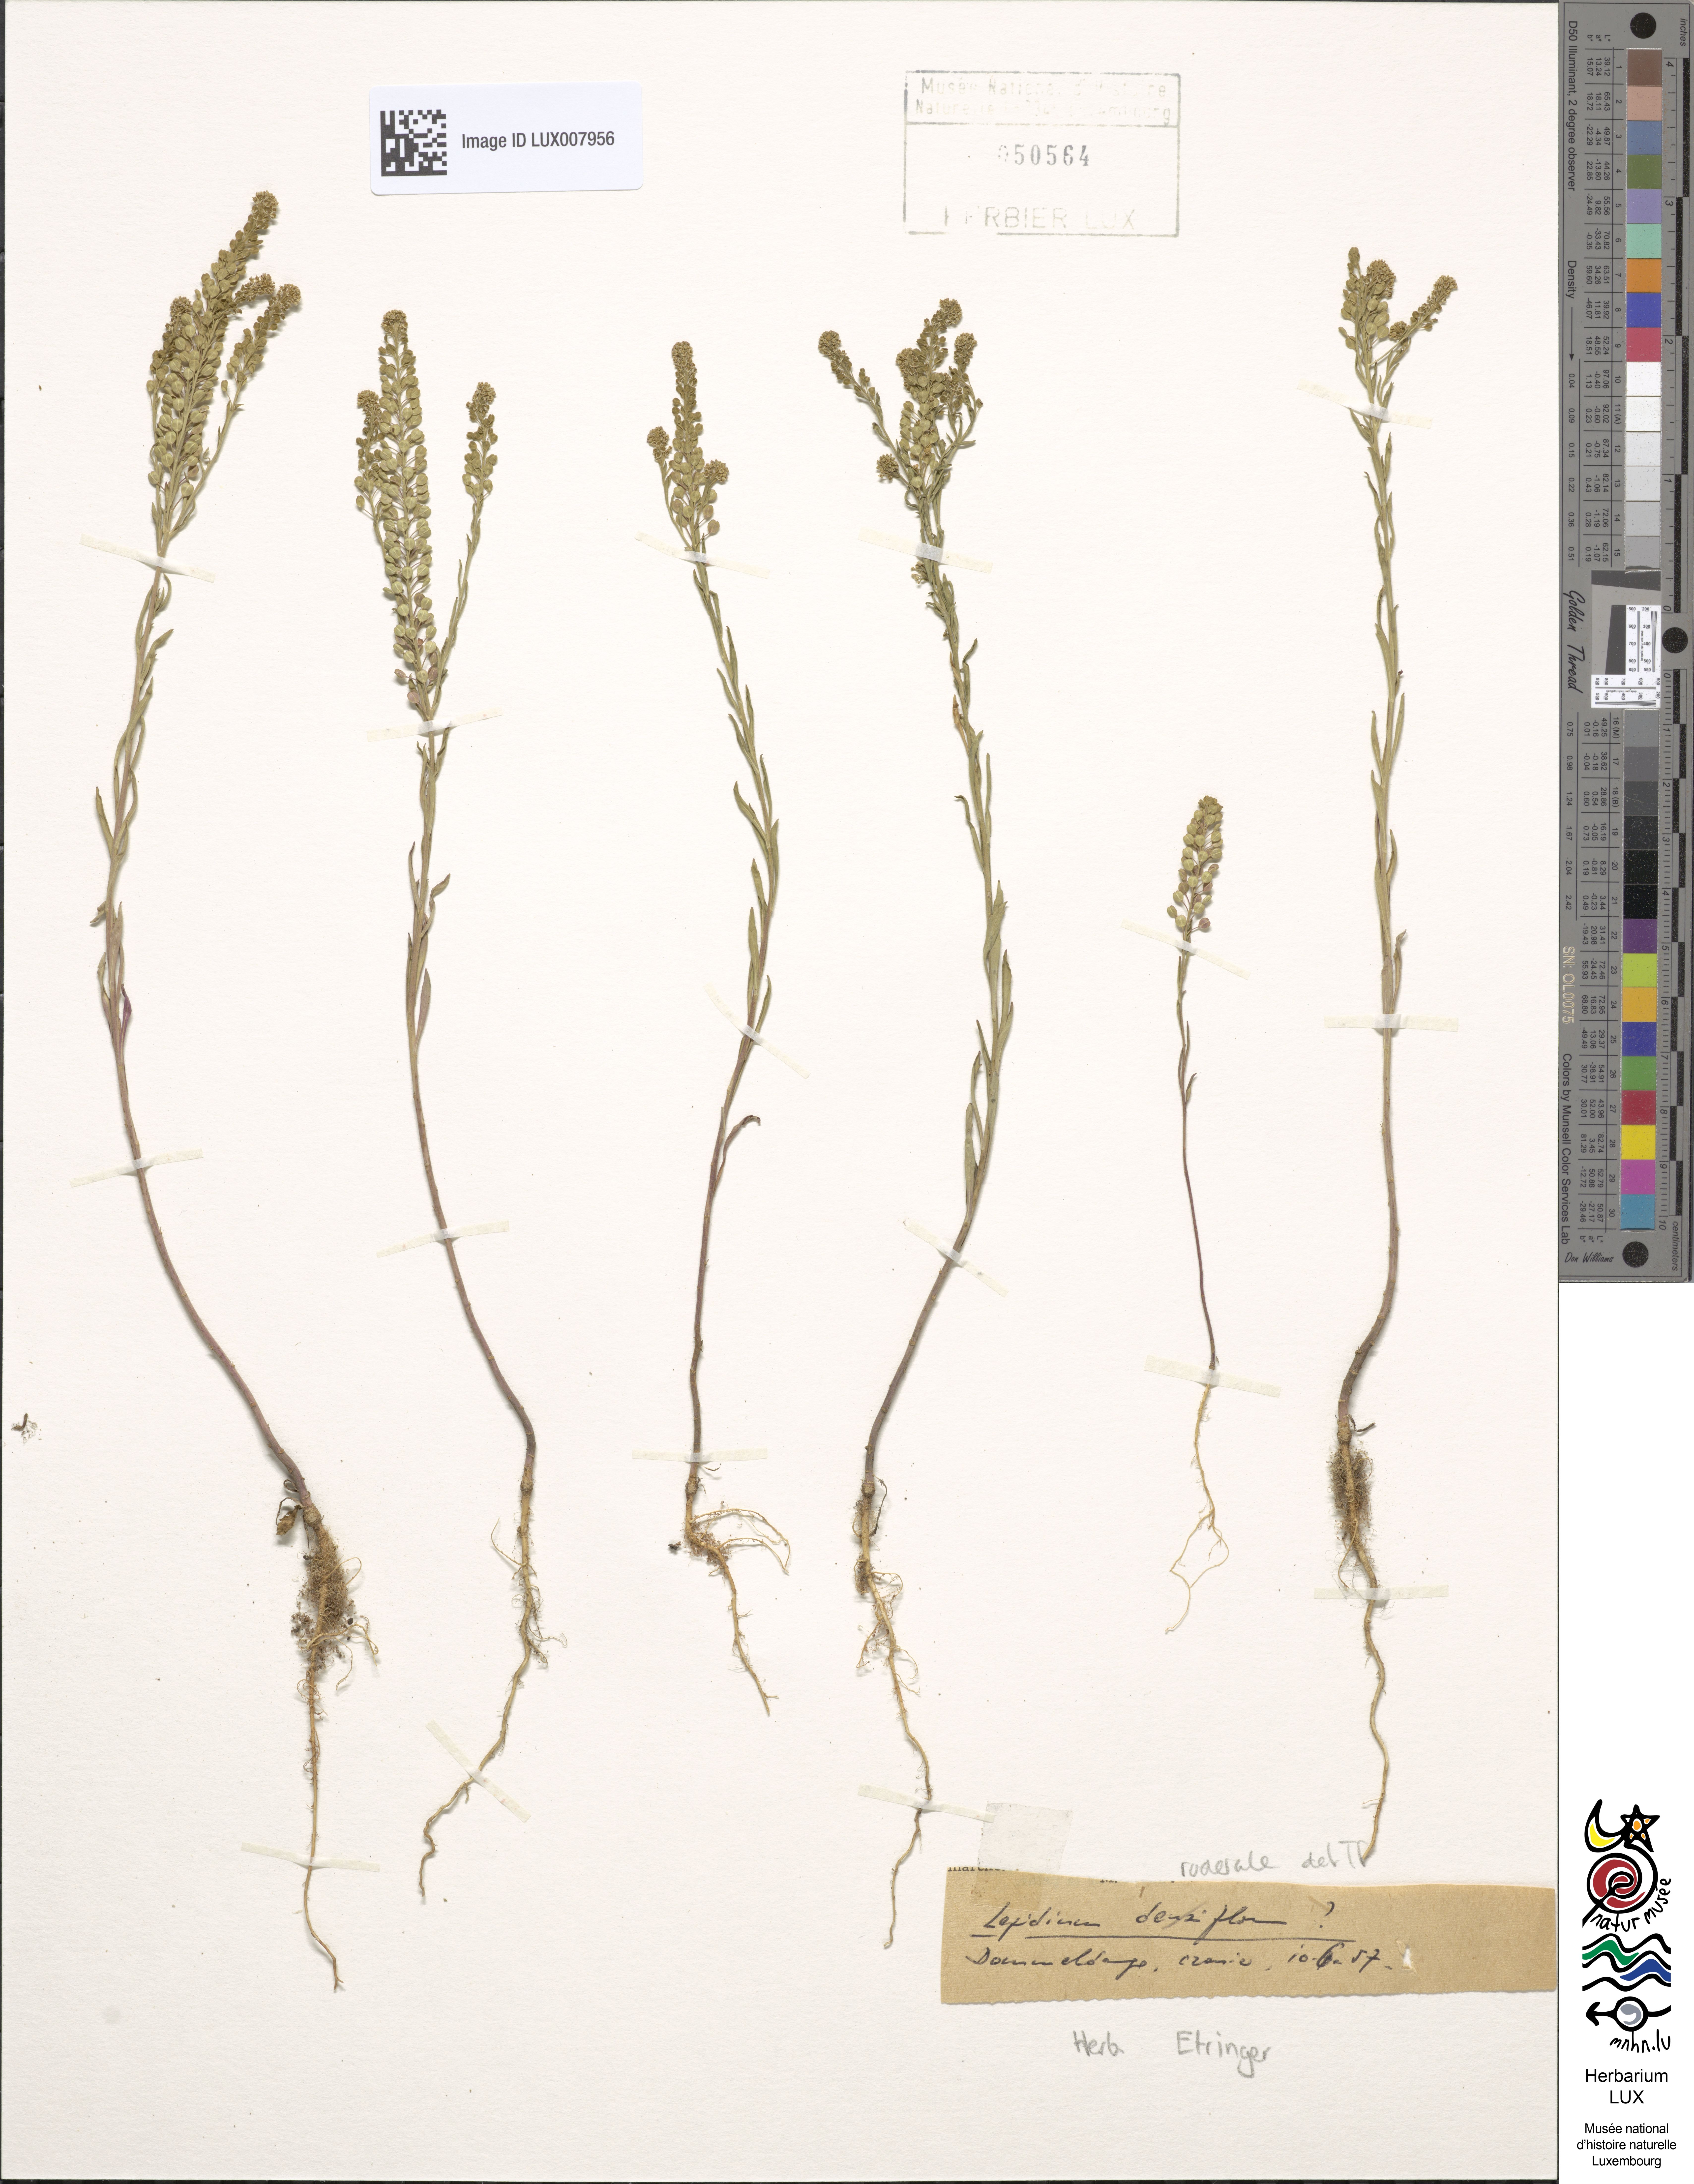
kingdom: Plantae
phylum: Tracheophyta
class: Magnoliopsida
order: Brassicales
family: Brassicaceae
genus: Lepidium
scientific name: Lepidium ruderale
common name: Narrow-leaved pepperwort
